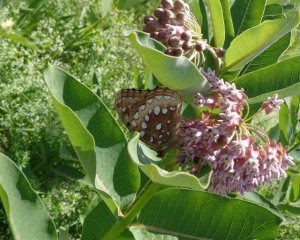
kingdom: Animalia
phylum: Arthropoda
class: Insecta
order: Lepidoptera
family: Nymphalidae
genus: Speyeria
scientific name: Speyeria cybele
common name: Great Spangled Fritillary
